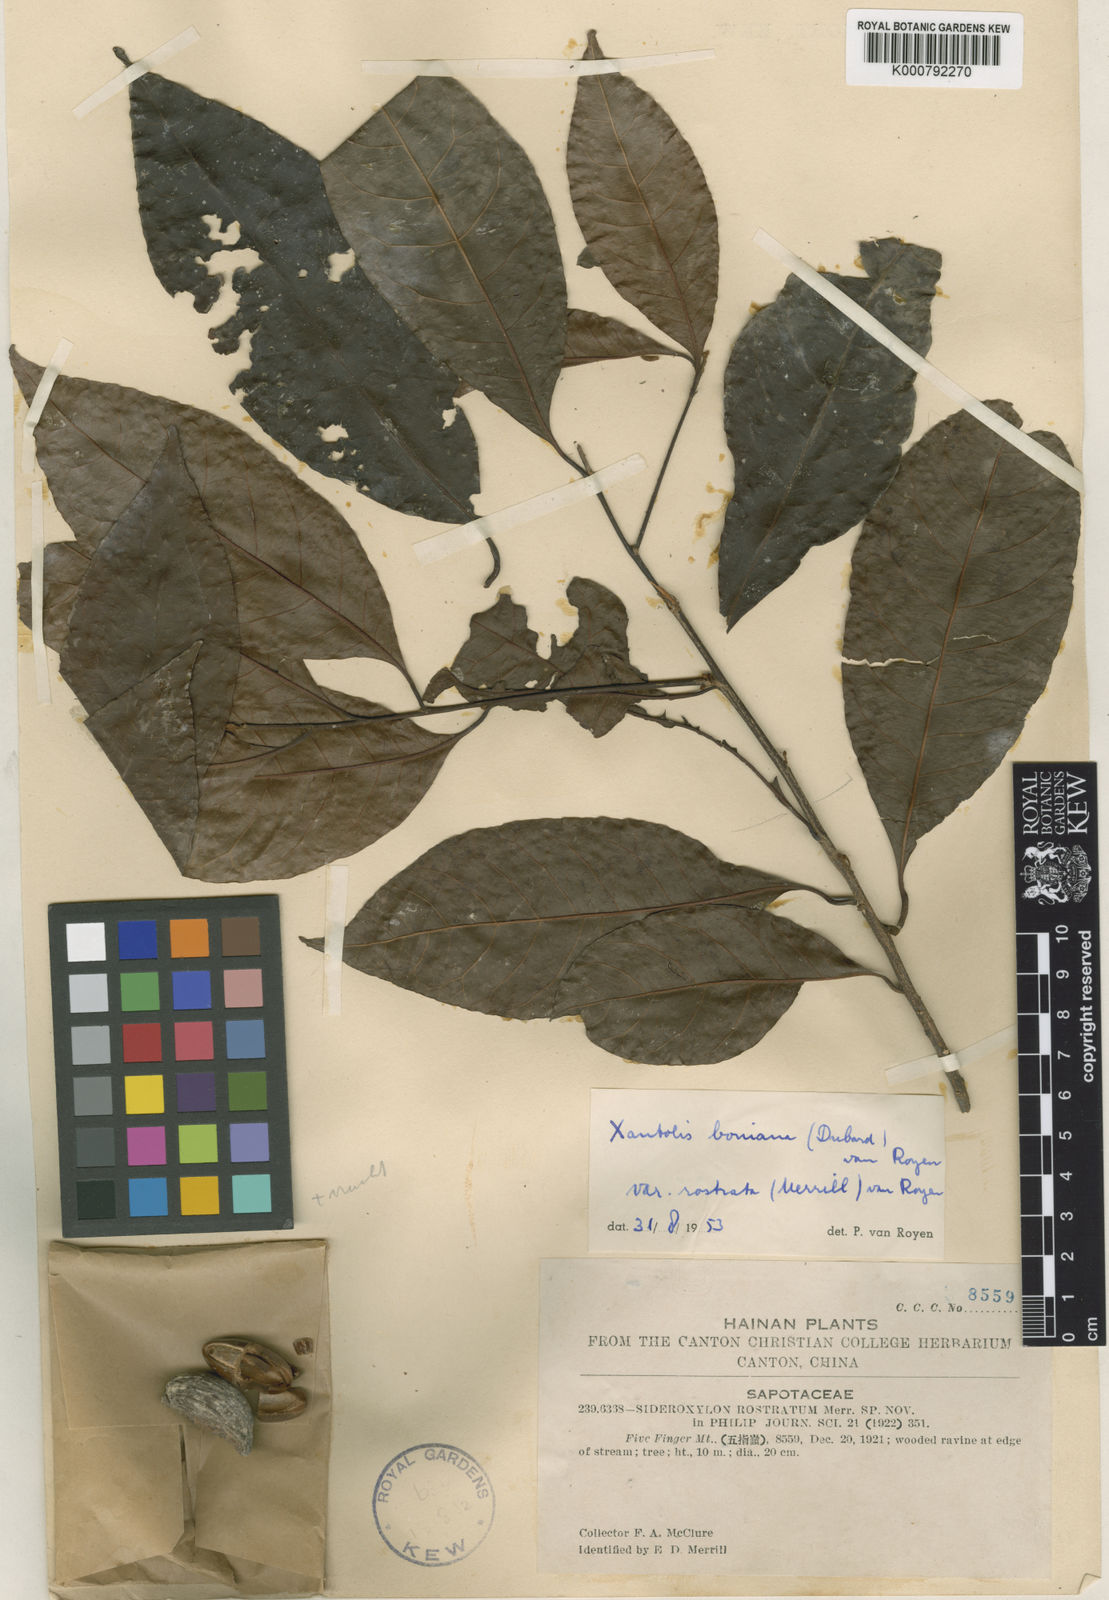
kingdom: Plantae
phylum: Tracheophyta
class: Magnoliopsida
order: Ericales
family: Sapotaceae
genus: Xantolis
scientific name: Xantolis boniana
